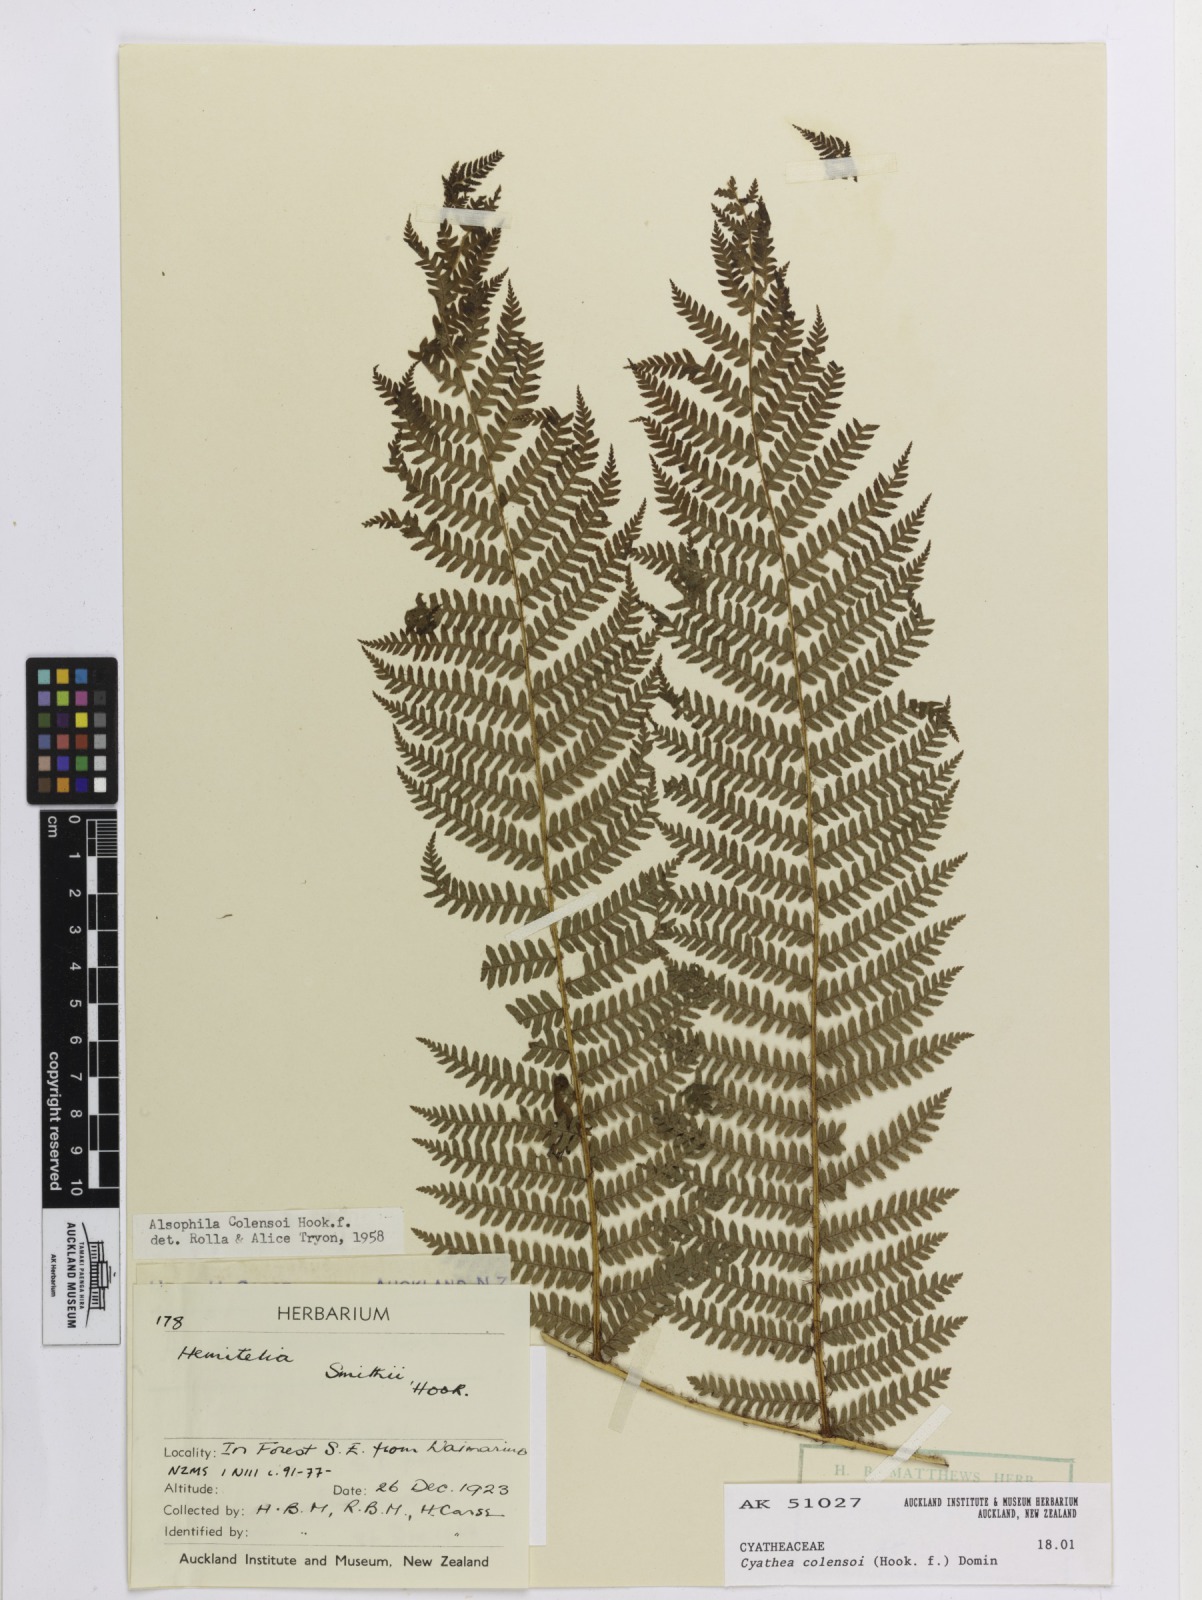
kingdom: Plantae
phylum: Tracheophyta
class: Polypodiopsida
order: Cyatheales
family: Cyatheaceae
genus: Alsophila
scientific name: Alsophila colensoi
